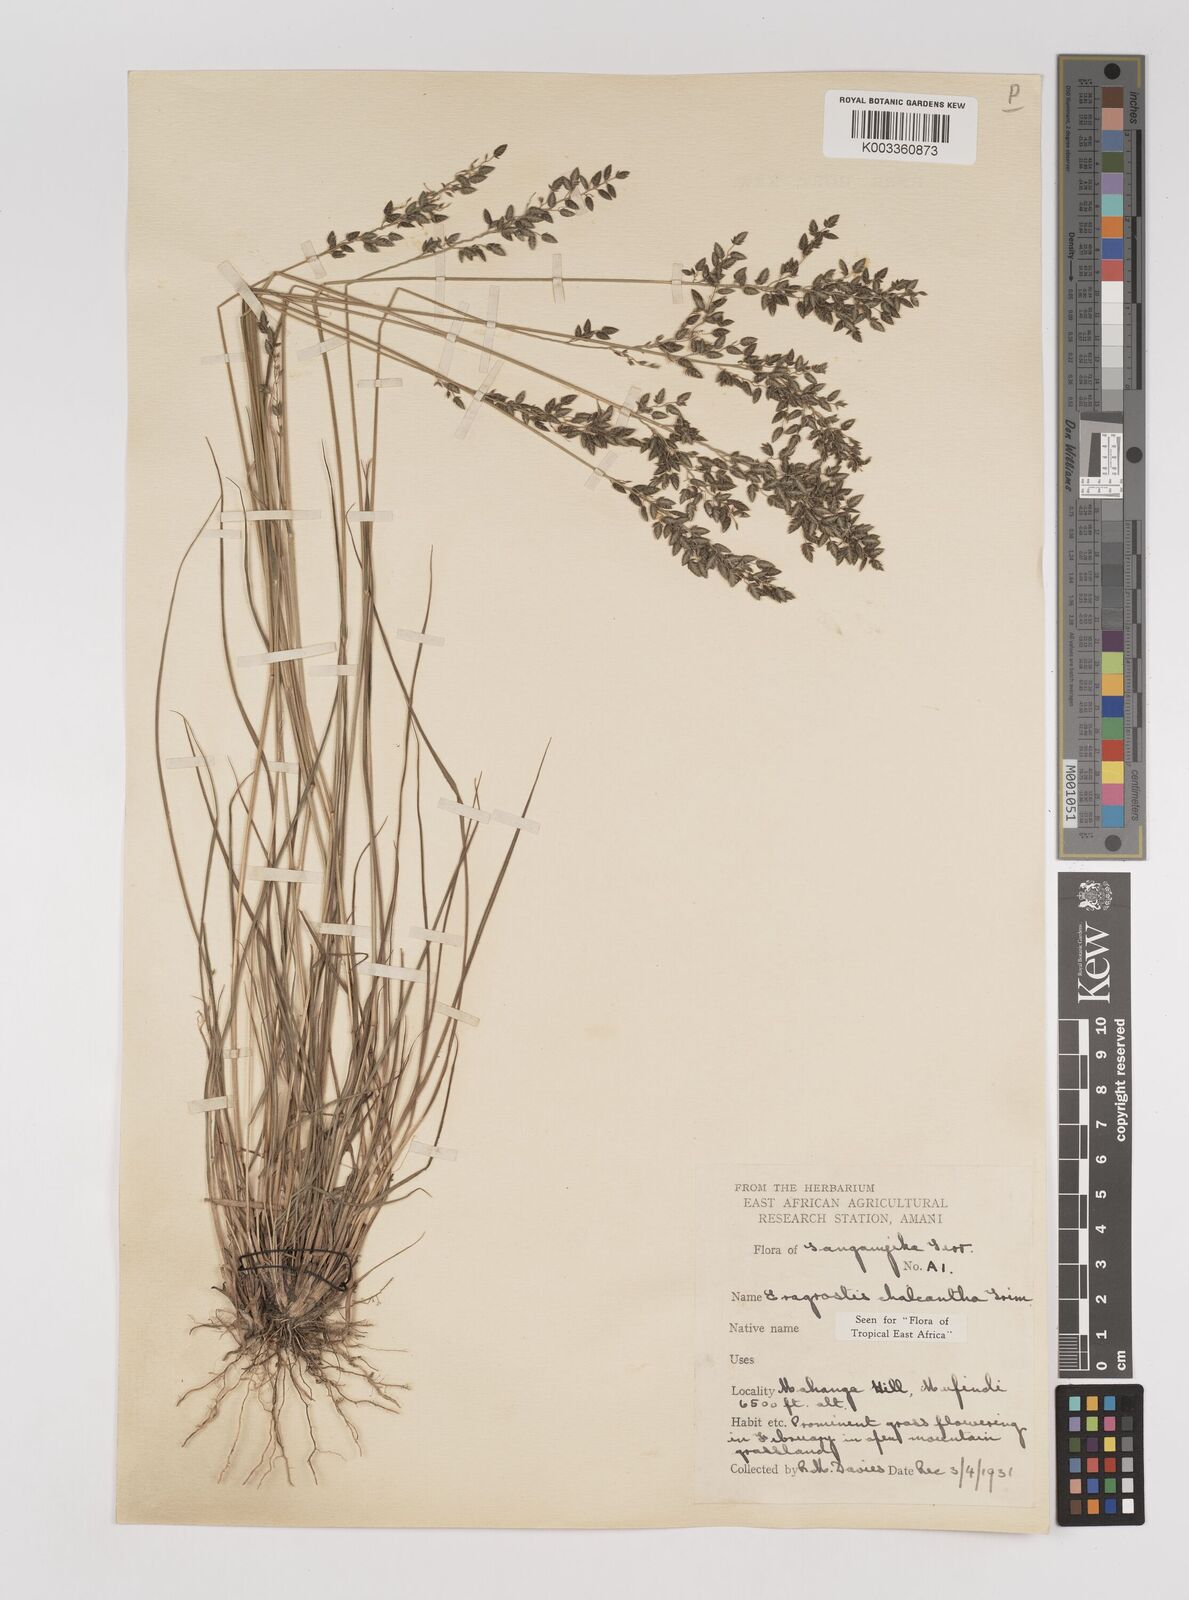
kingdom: Plantae
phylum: Tracheophyta
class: Liliopsida
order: Poales
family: Poaceae
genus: Eragrostis
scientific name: Eragrostis racemosa
